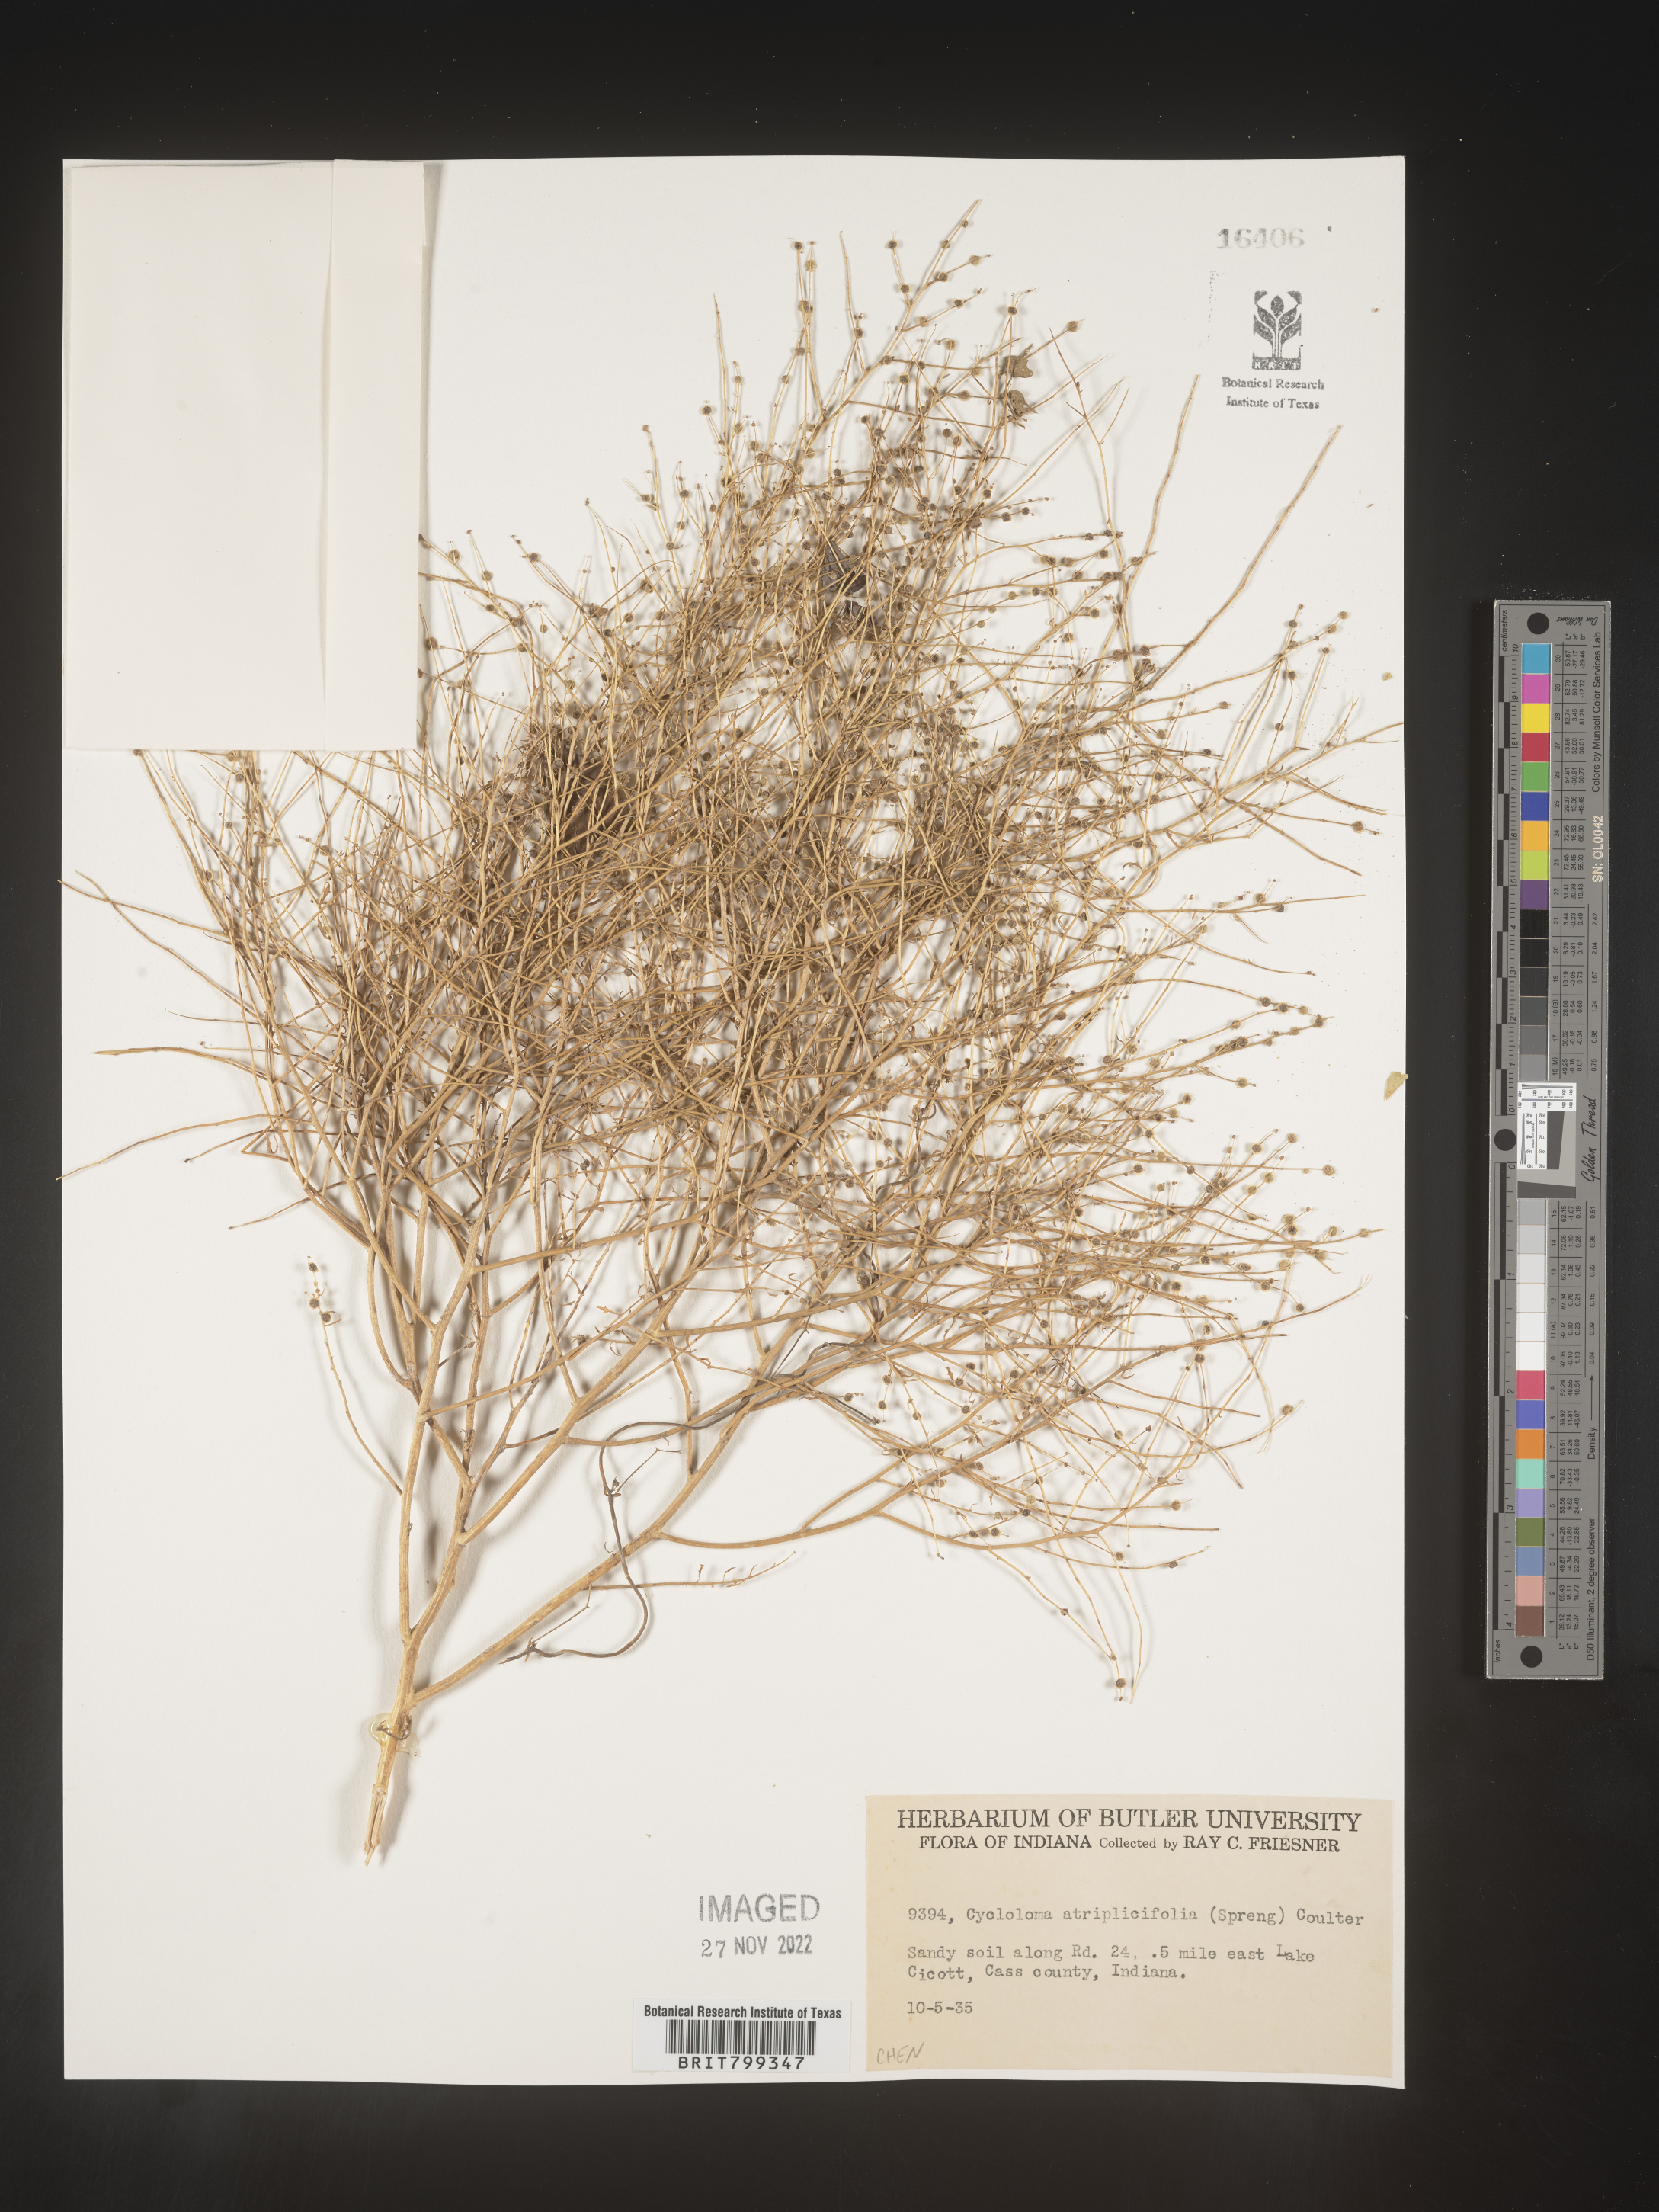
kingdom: Plantae
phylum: Tracheophyta
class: Magnoliopsida
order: Caryophyllales
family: Amaranthaceae
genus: Dysphania
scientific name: Dysphania atriplicifolia
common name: Plains tumbleweed
